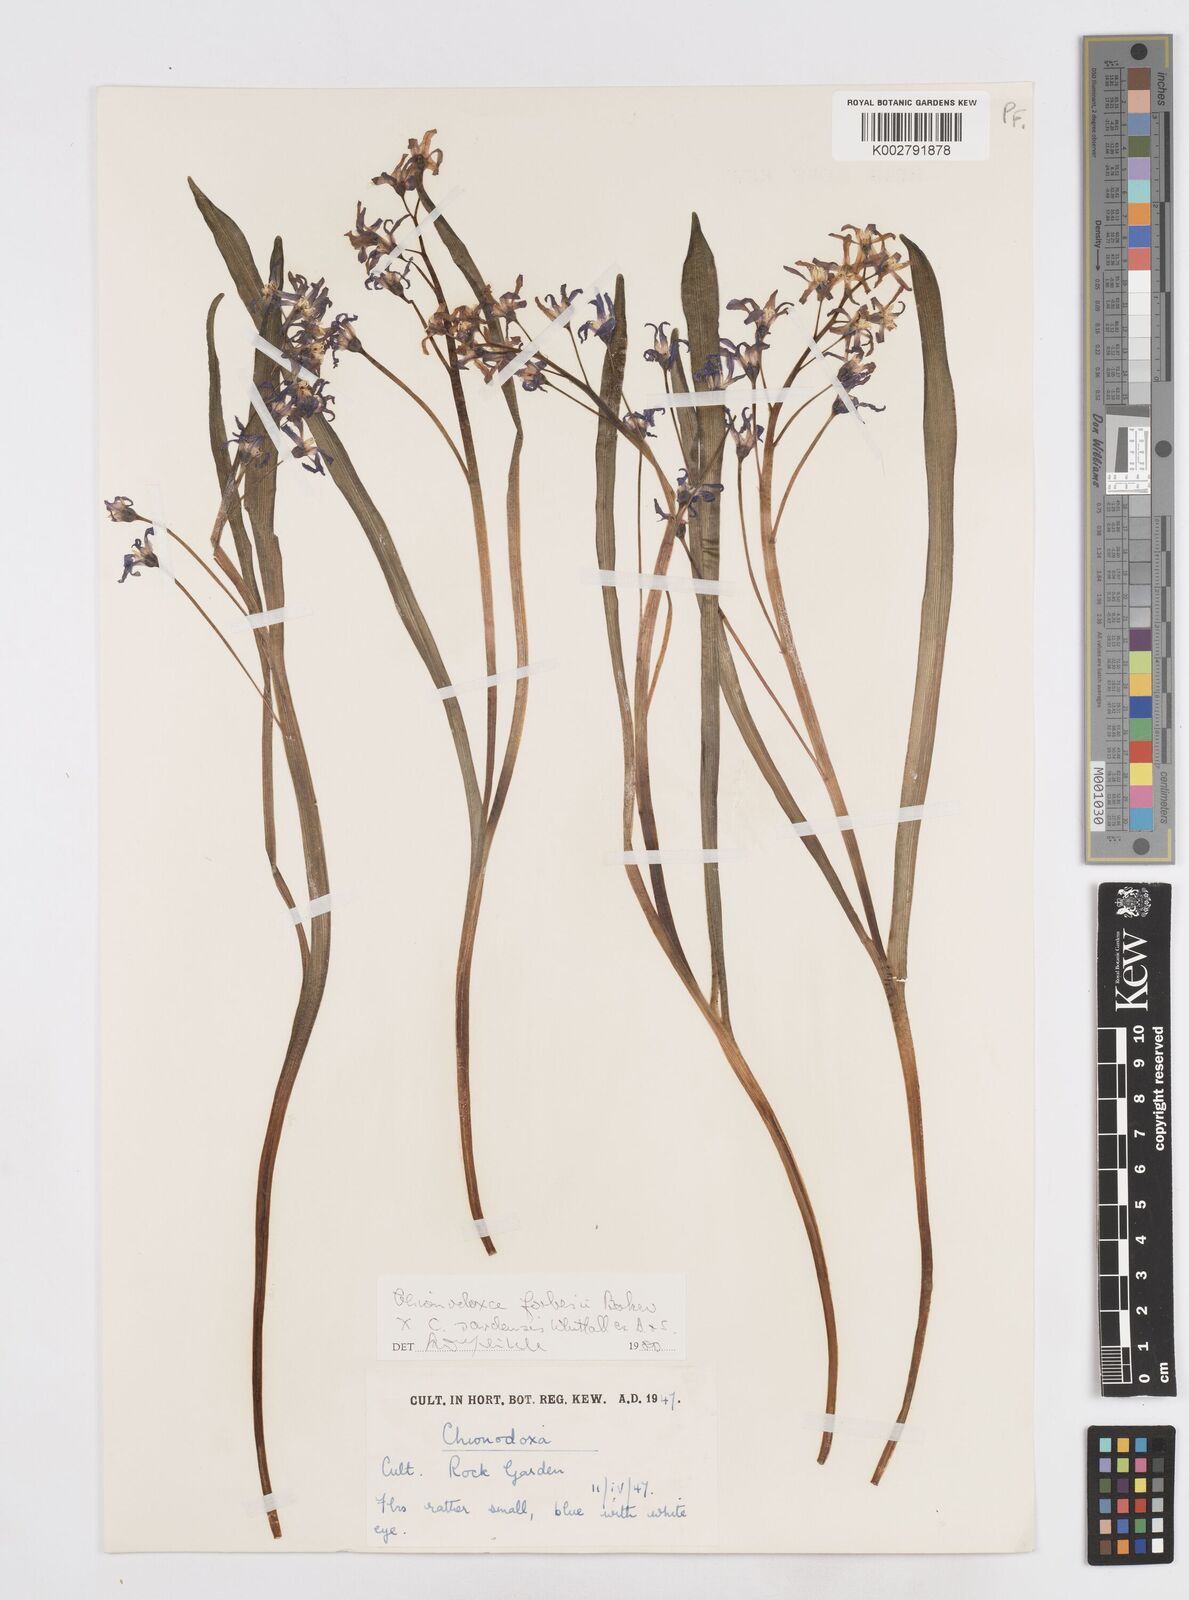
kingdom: Plantae
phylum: Tracheophyta
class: Liliopsida
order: Asparagales
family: Asparagaceae
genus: Scilla
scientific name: Scilla
